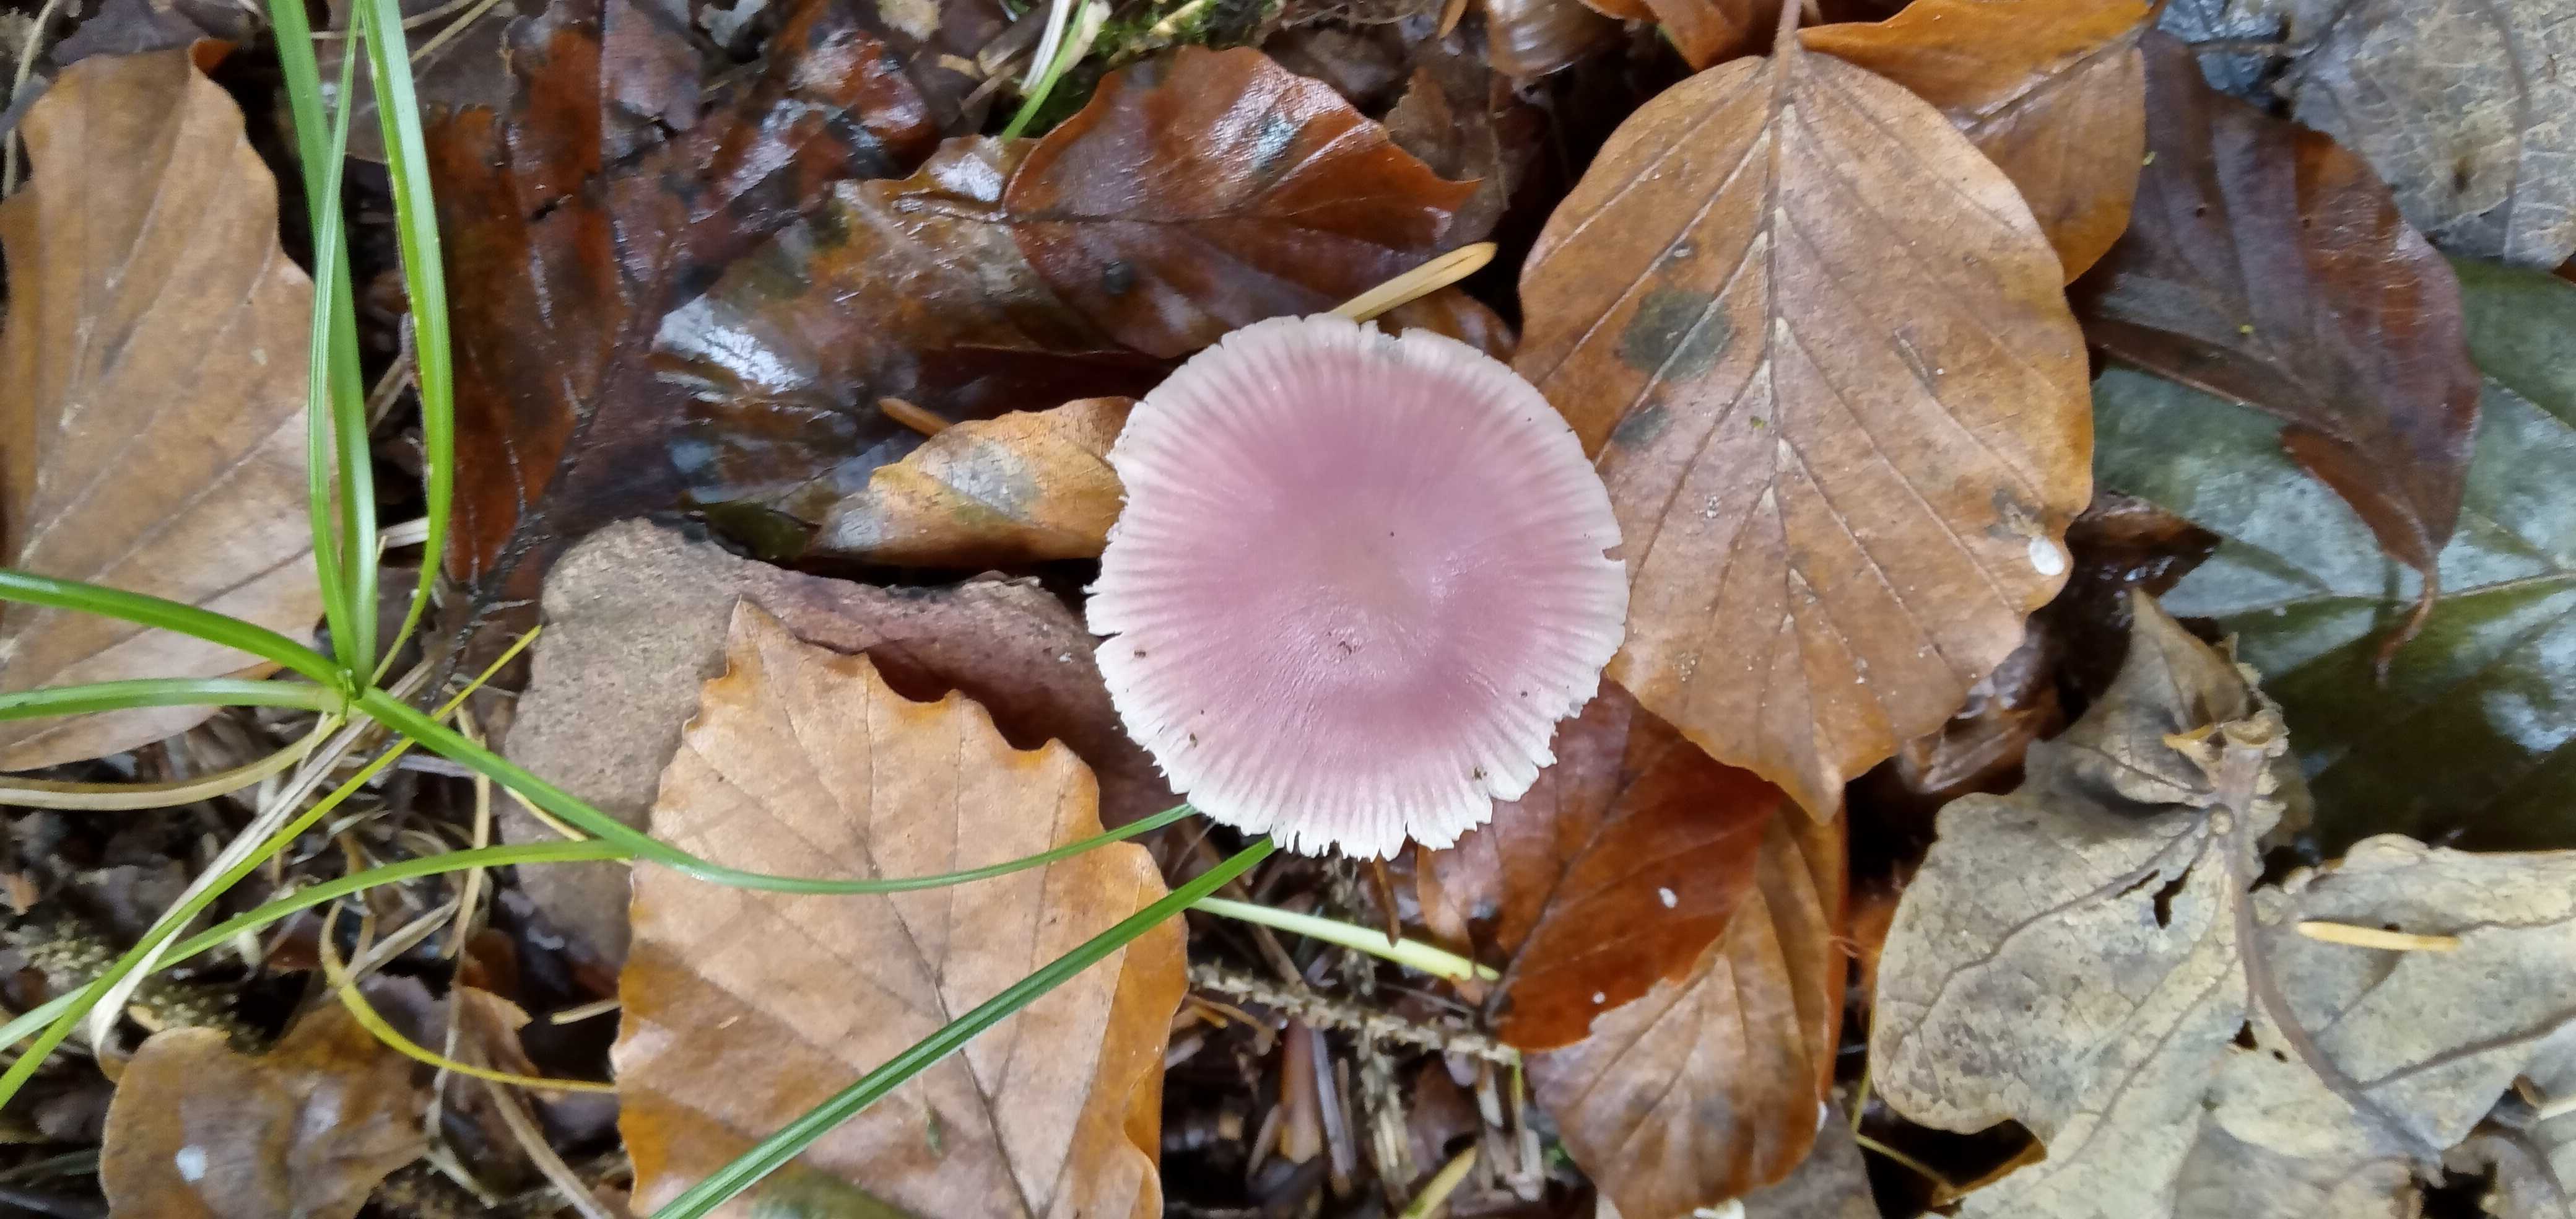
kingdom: Fungi
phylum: Basidiomycota
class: Agaricomycetes
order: Agaricales
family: Mycenaceae
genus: Mycena
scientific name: Mycena rosea
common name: rosa huesvamp
